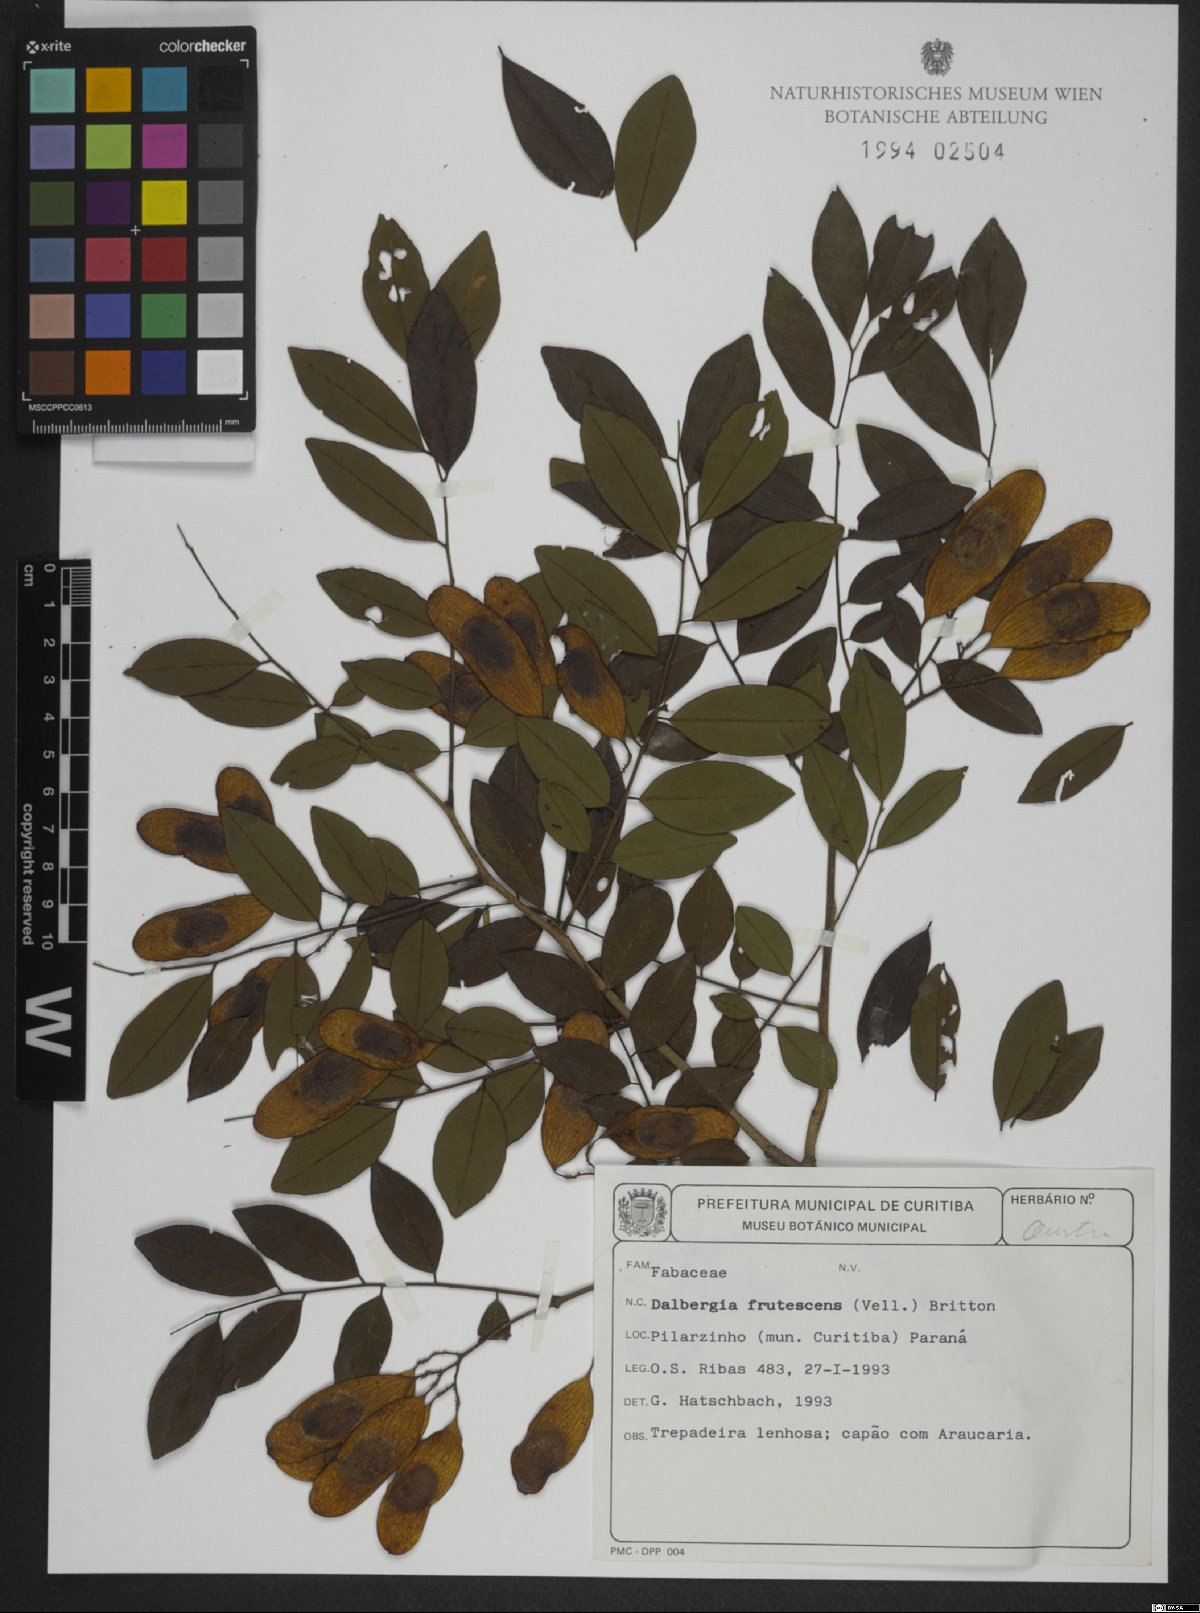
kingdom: Plantae
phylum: Tracheophyta
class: Magnoliopsida
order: Fabales
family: Fabaceae
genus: Dalbergia
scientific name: Dalbergia frutescens
